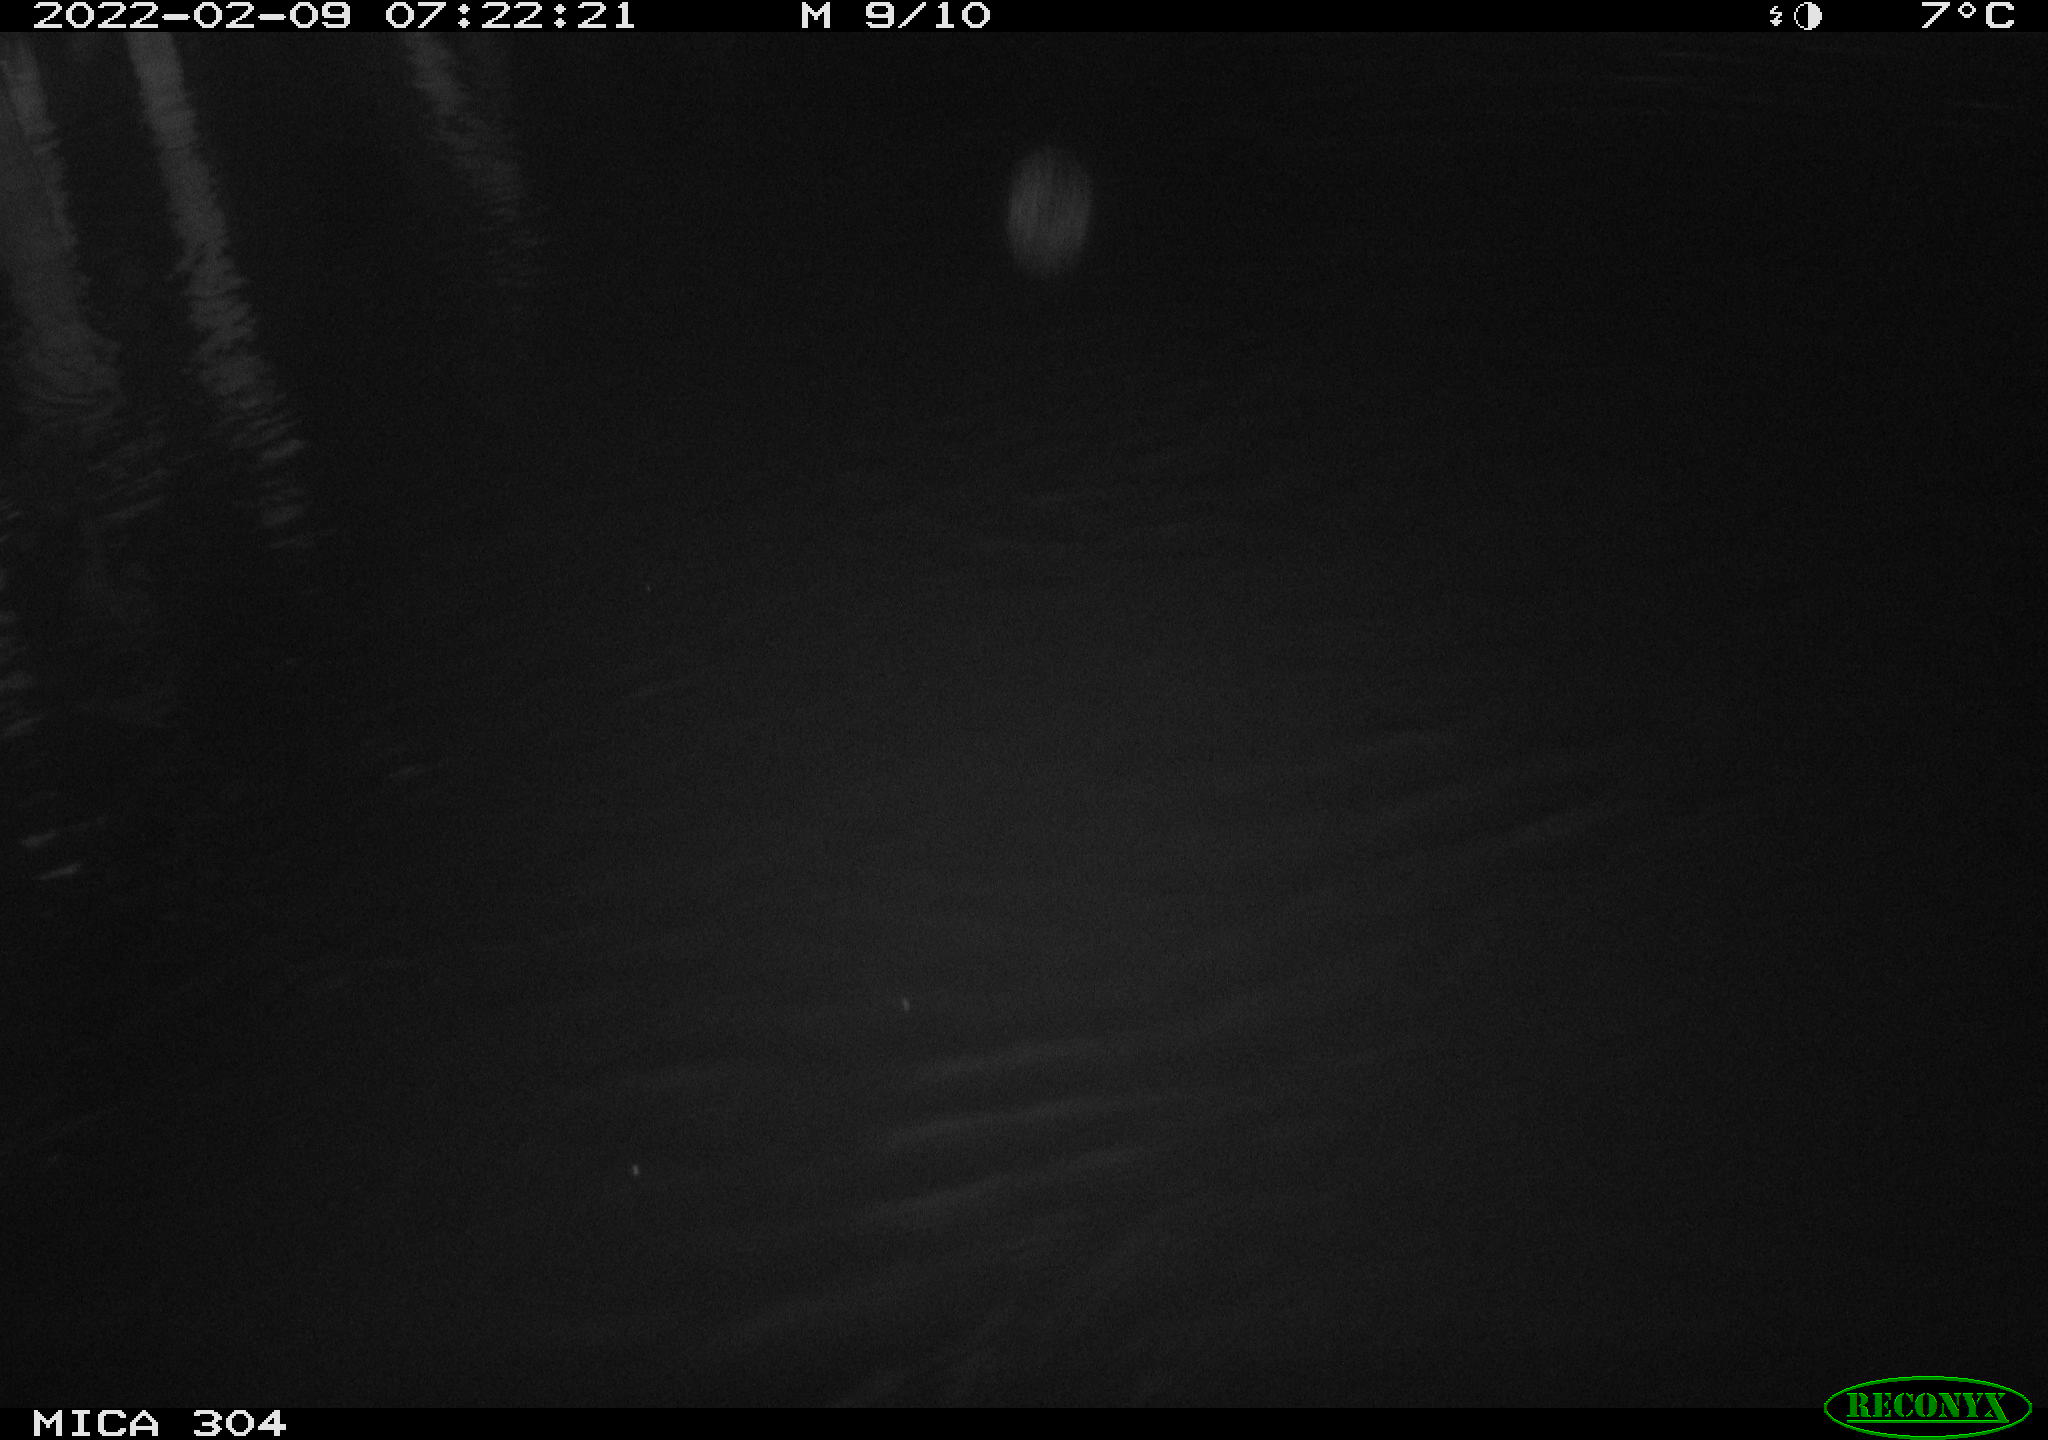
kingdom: Animalia
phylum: Chordata
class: Aves
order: Anseriformes
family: Anatidae
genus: Anas
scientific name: Anas platyrhynchos
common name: Mallard
